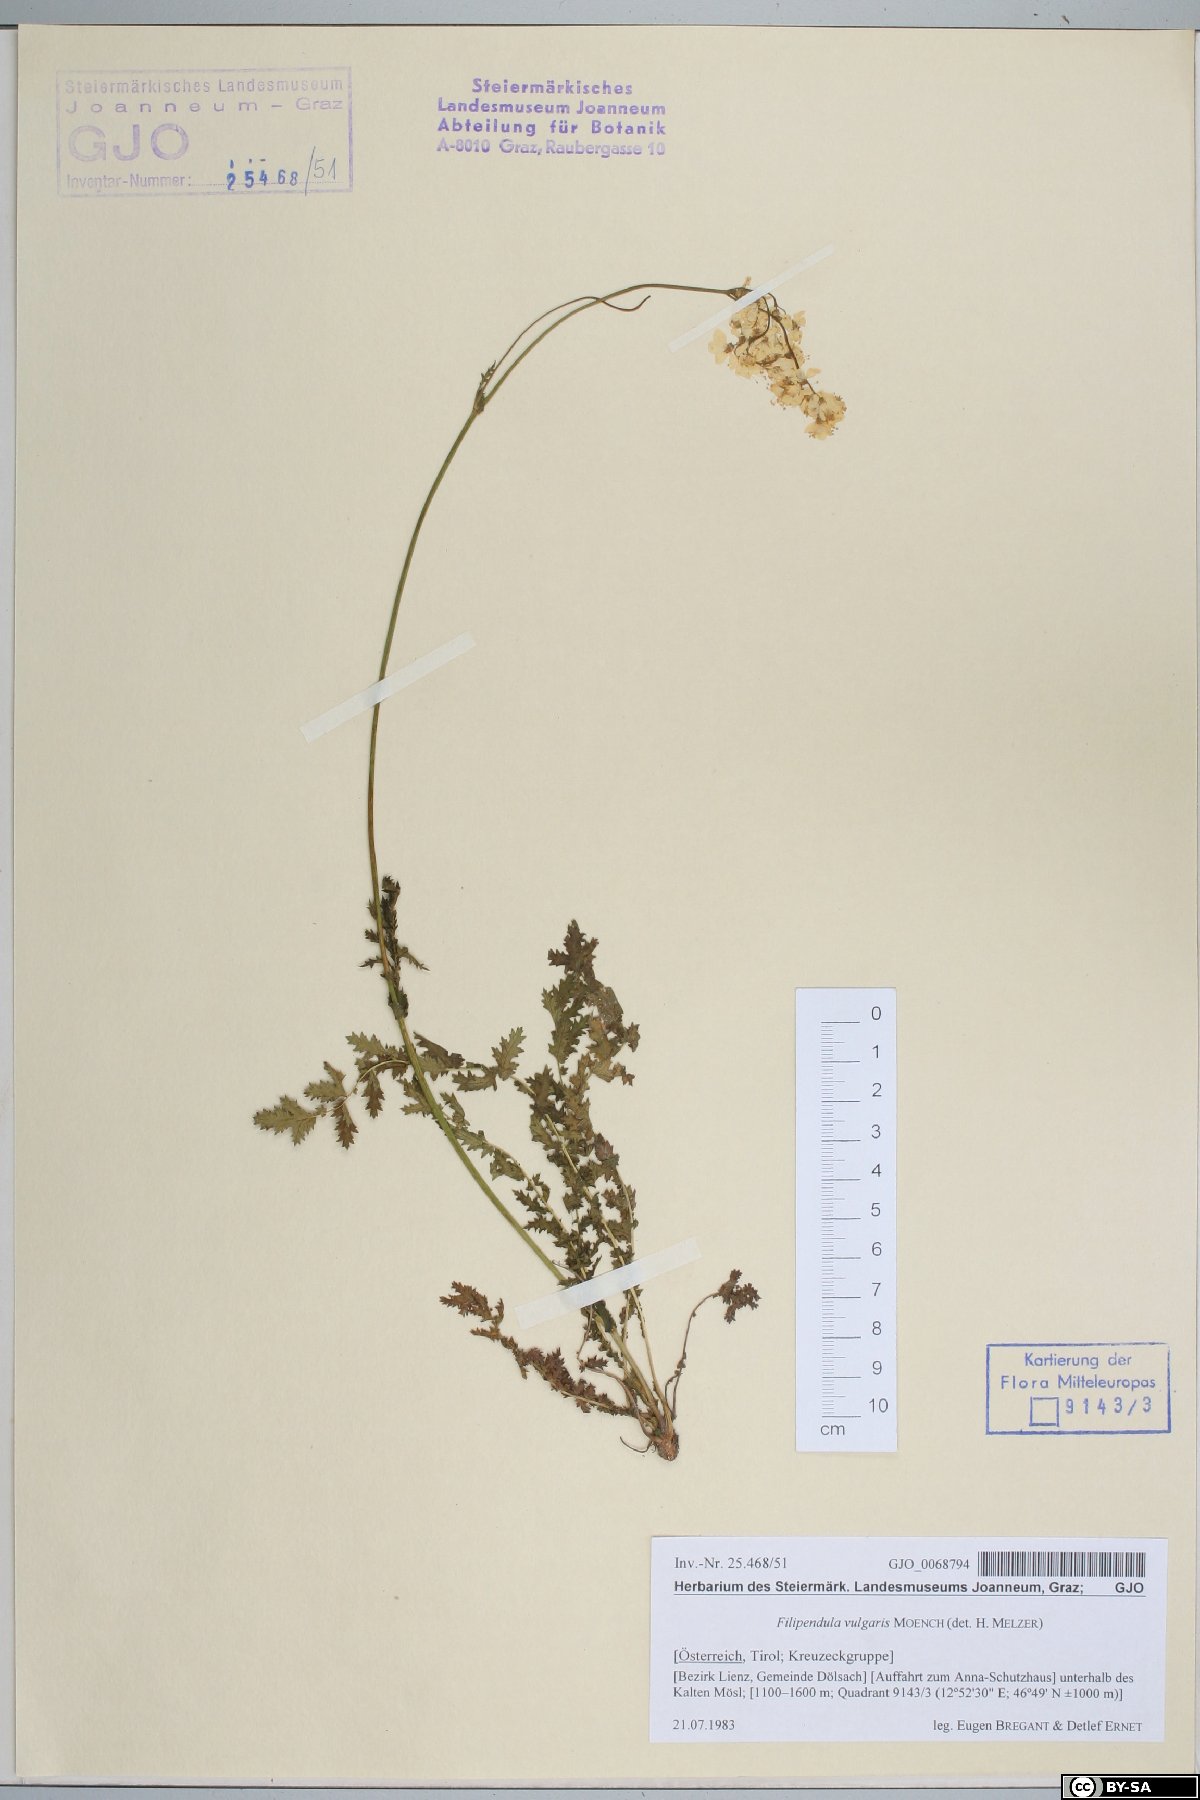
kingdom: Plantae
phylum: Tracheophyta
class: Magnoliopsida
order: Rosales
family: Rosaceae
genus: Filipendula
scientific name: Filipendula vulgaris
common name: Dropwort
